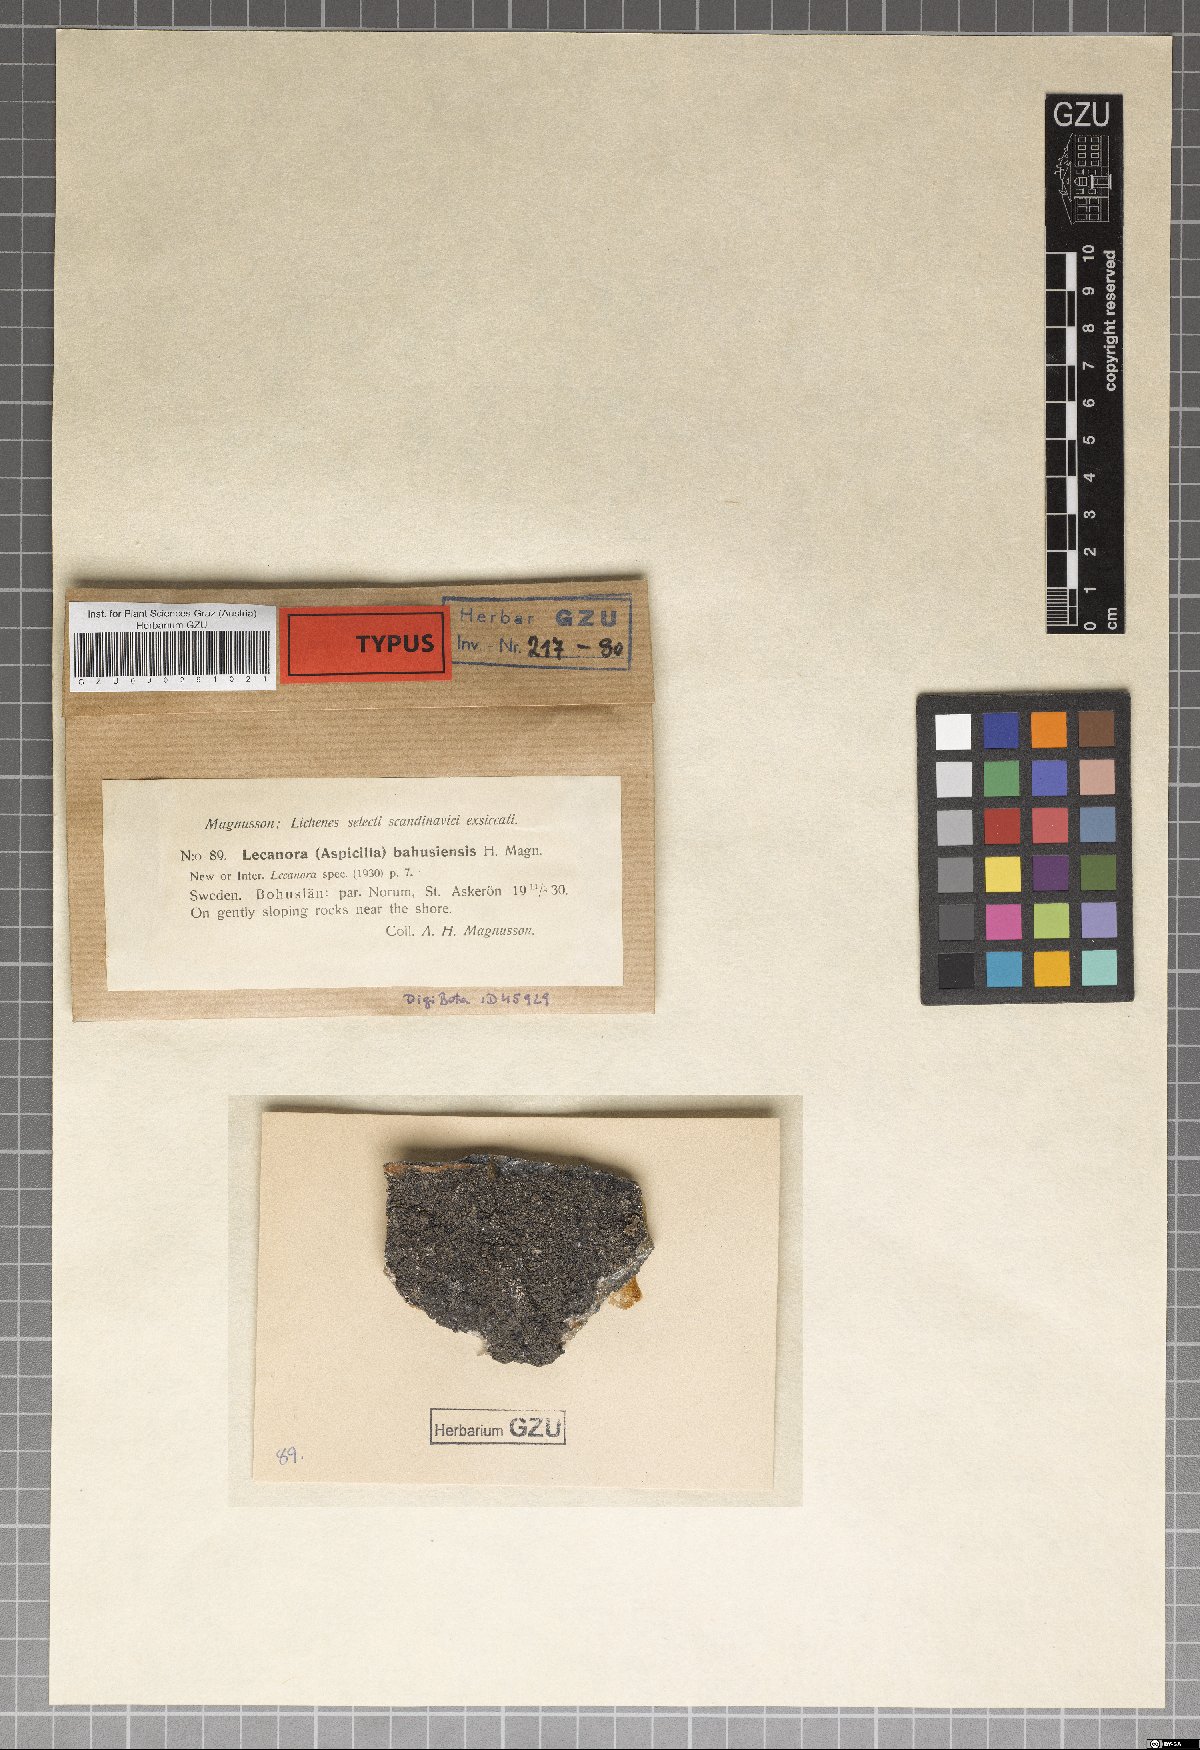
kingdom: Fungi
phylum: Ascomycota
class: Lecanoromycetes
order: Pertusariales
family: Pertusariaceae
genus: Sagedia
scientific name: Sagedia simoensis
